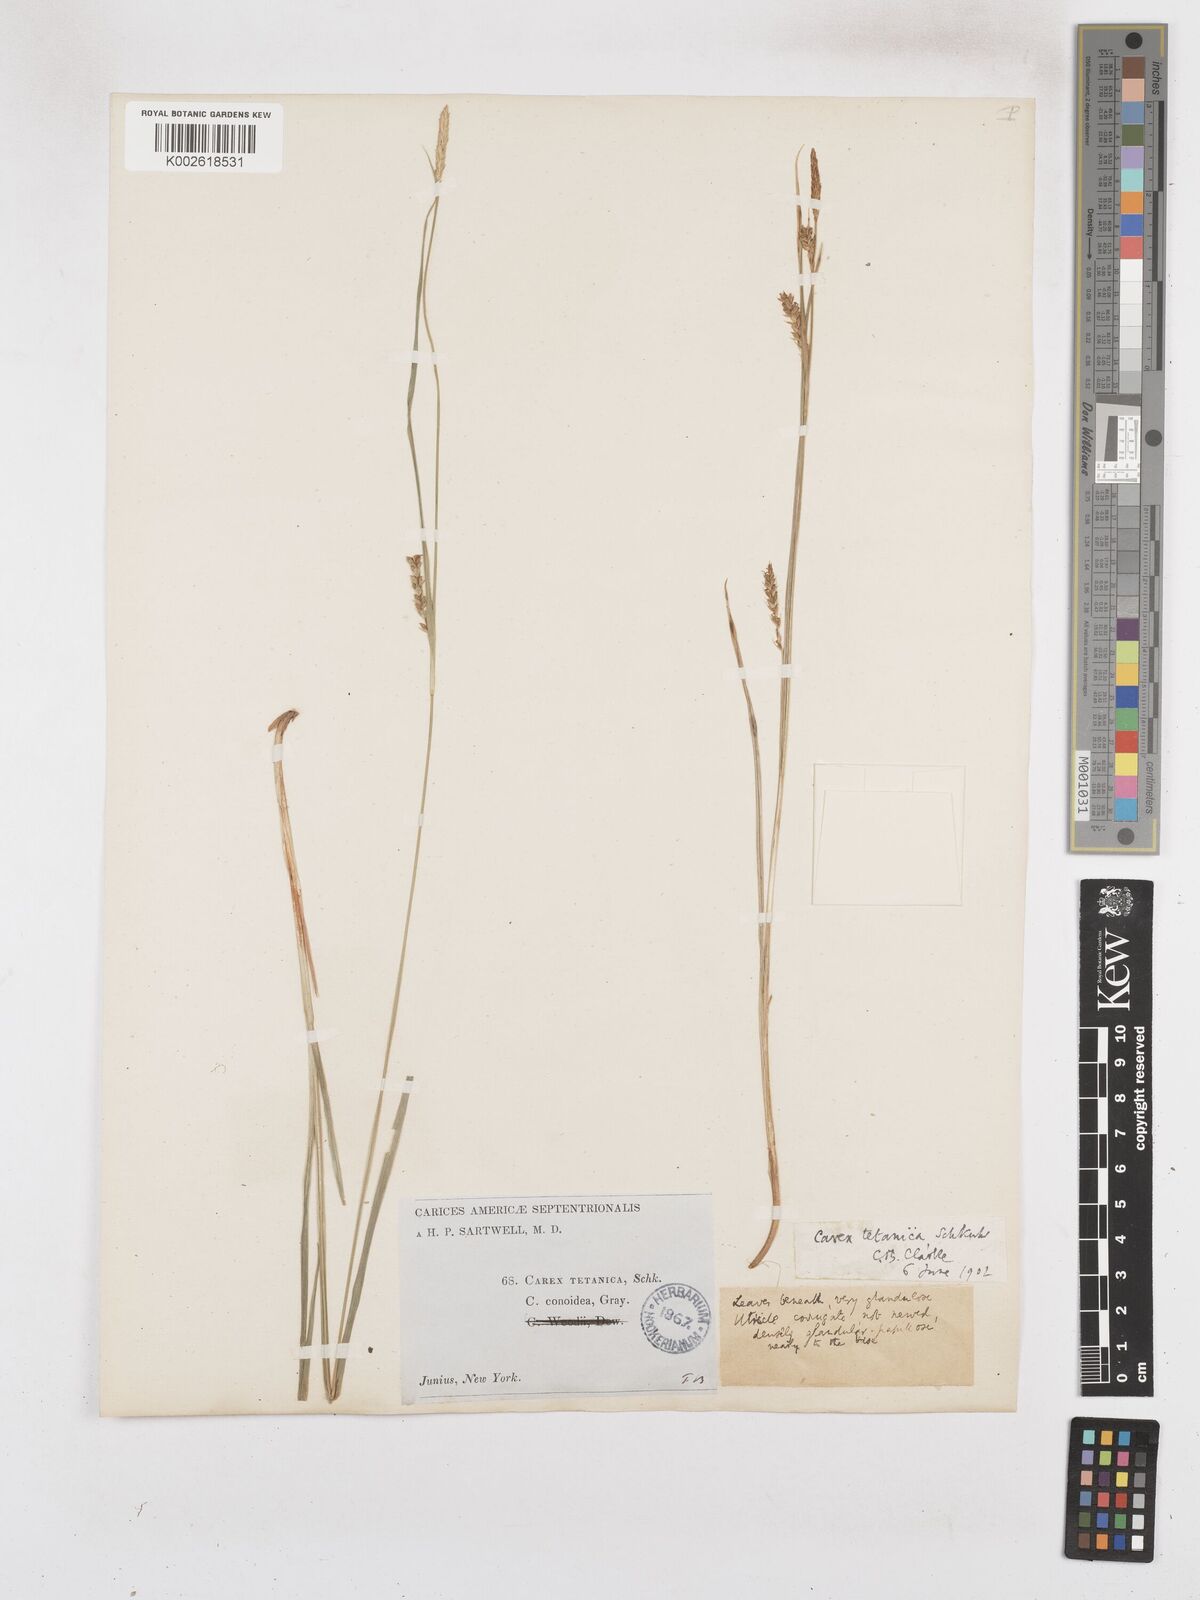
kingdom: Plantae
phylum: Tracheophyta
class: Liliopsida
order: Poales
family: Cyperaceae
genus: Carex
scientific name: Carex tetanica
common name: Rigid sedge
